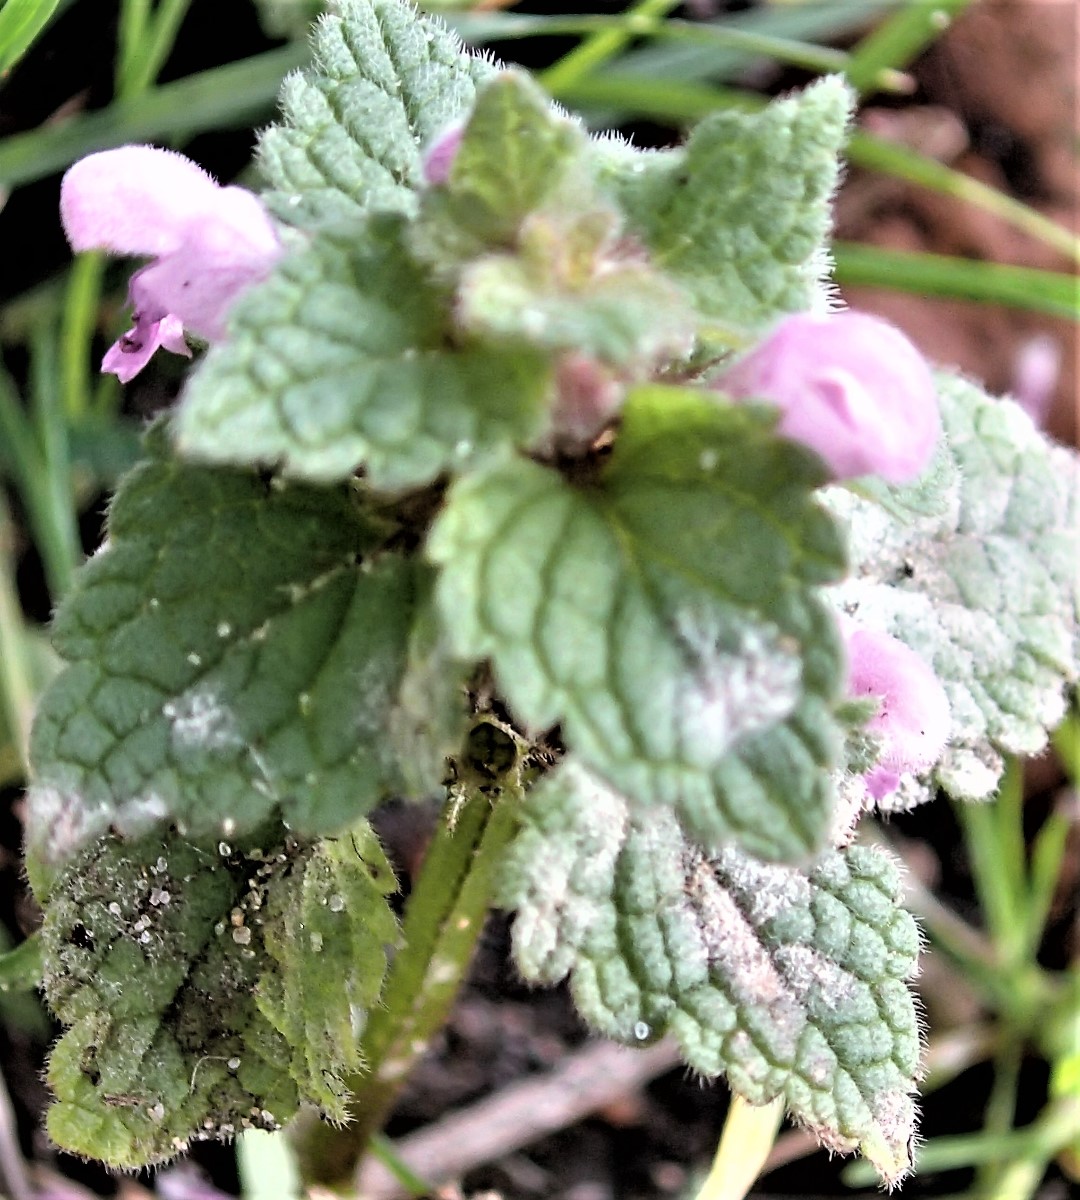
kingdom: Fungi
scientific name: Fungi
